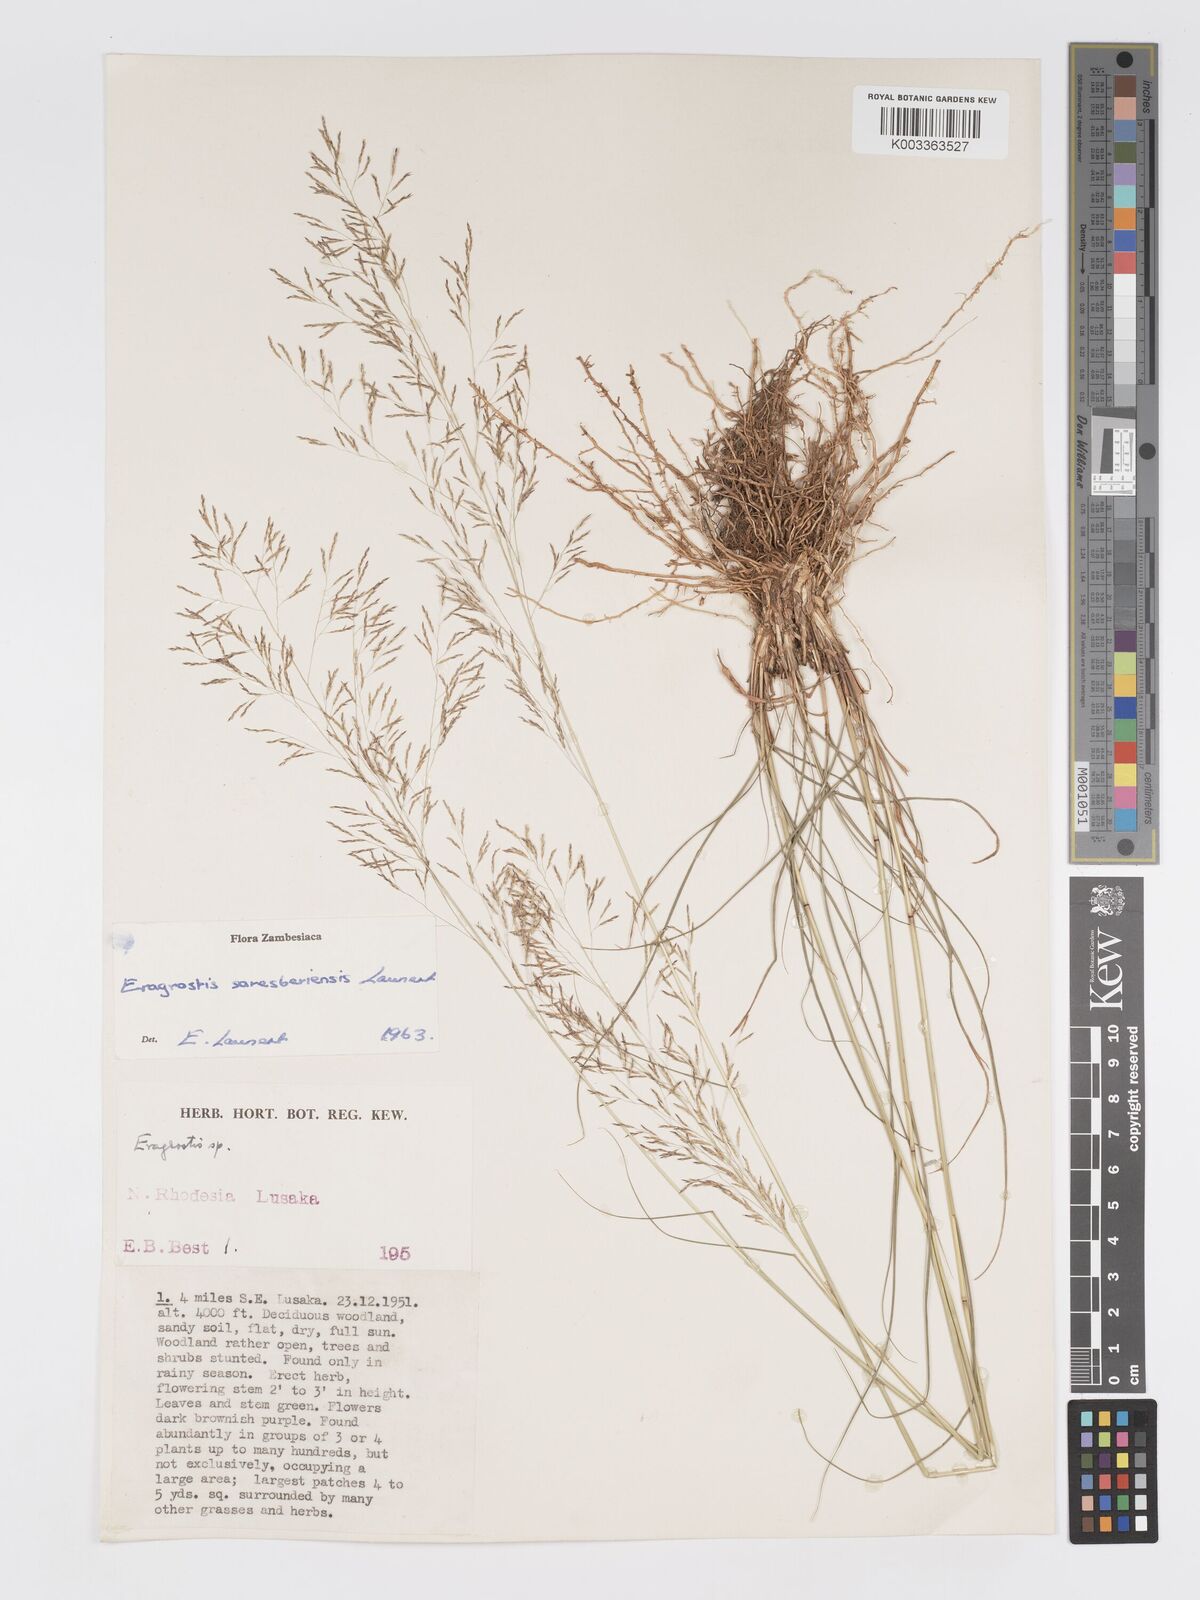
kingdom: Plantae
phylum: Tracheophyta
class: Liliopsida
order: Poales
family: Poaceae
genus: Eragrostis
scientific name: Eragrostis saresberiensis
